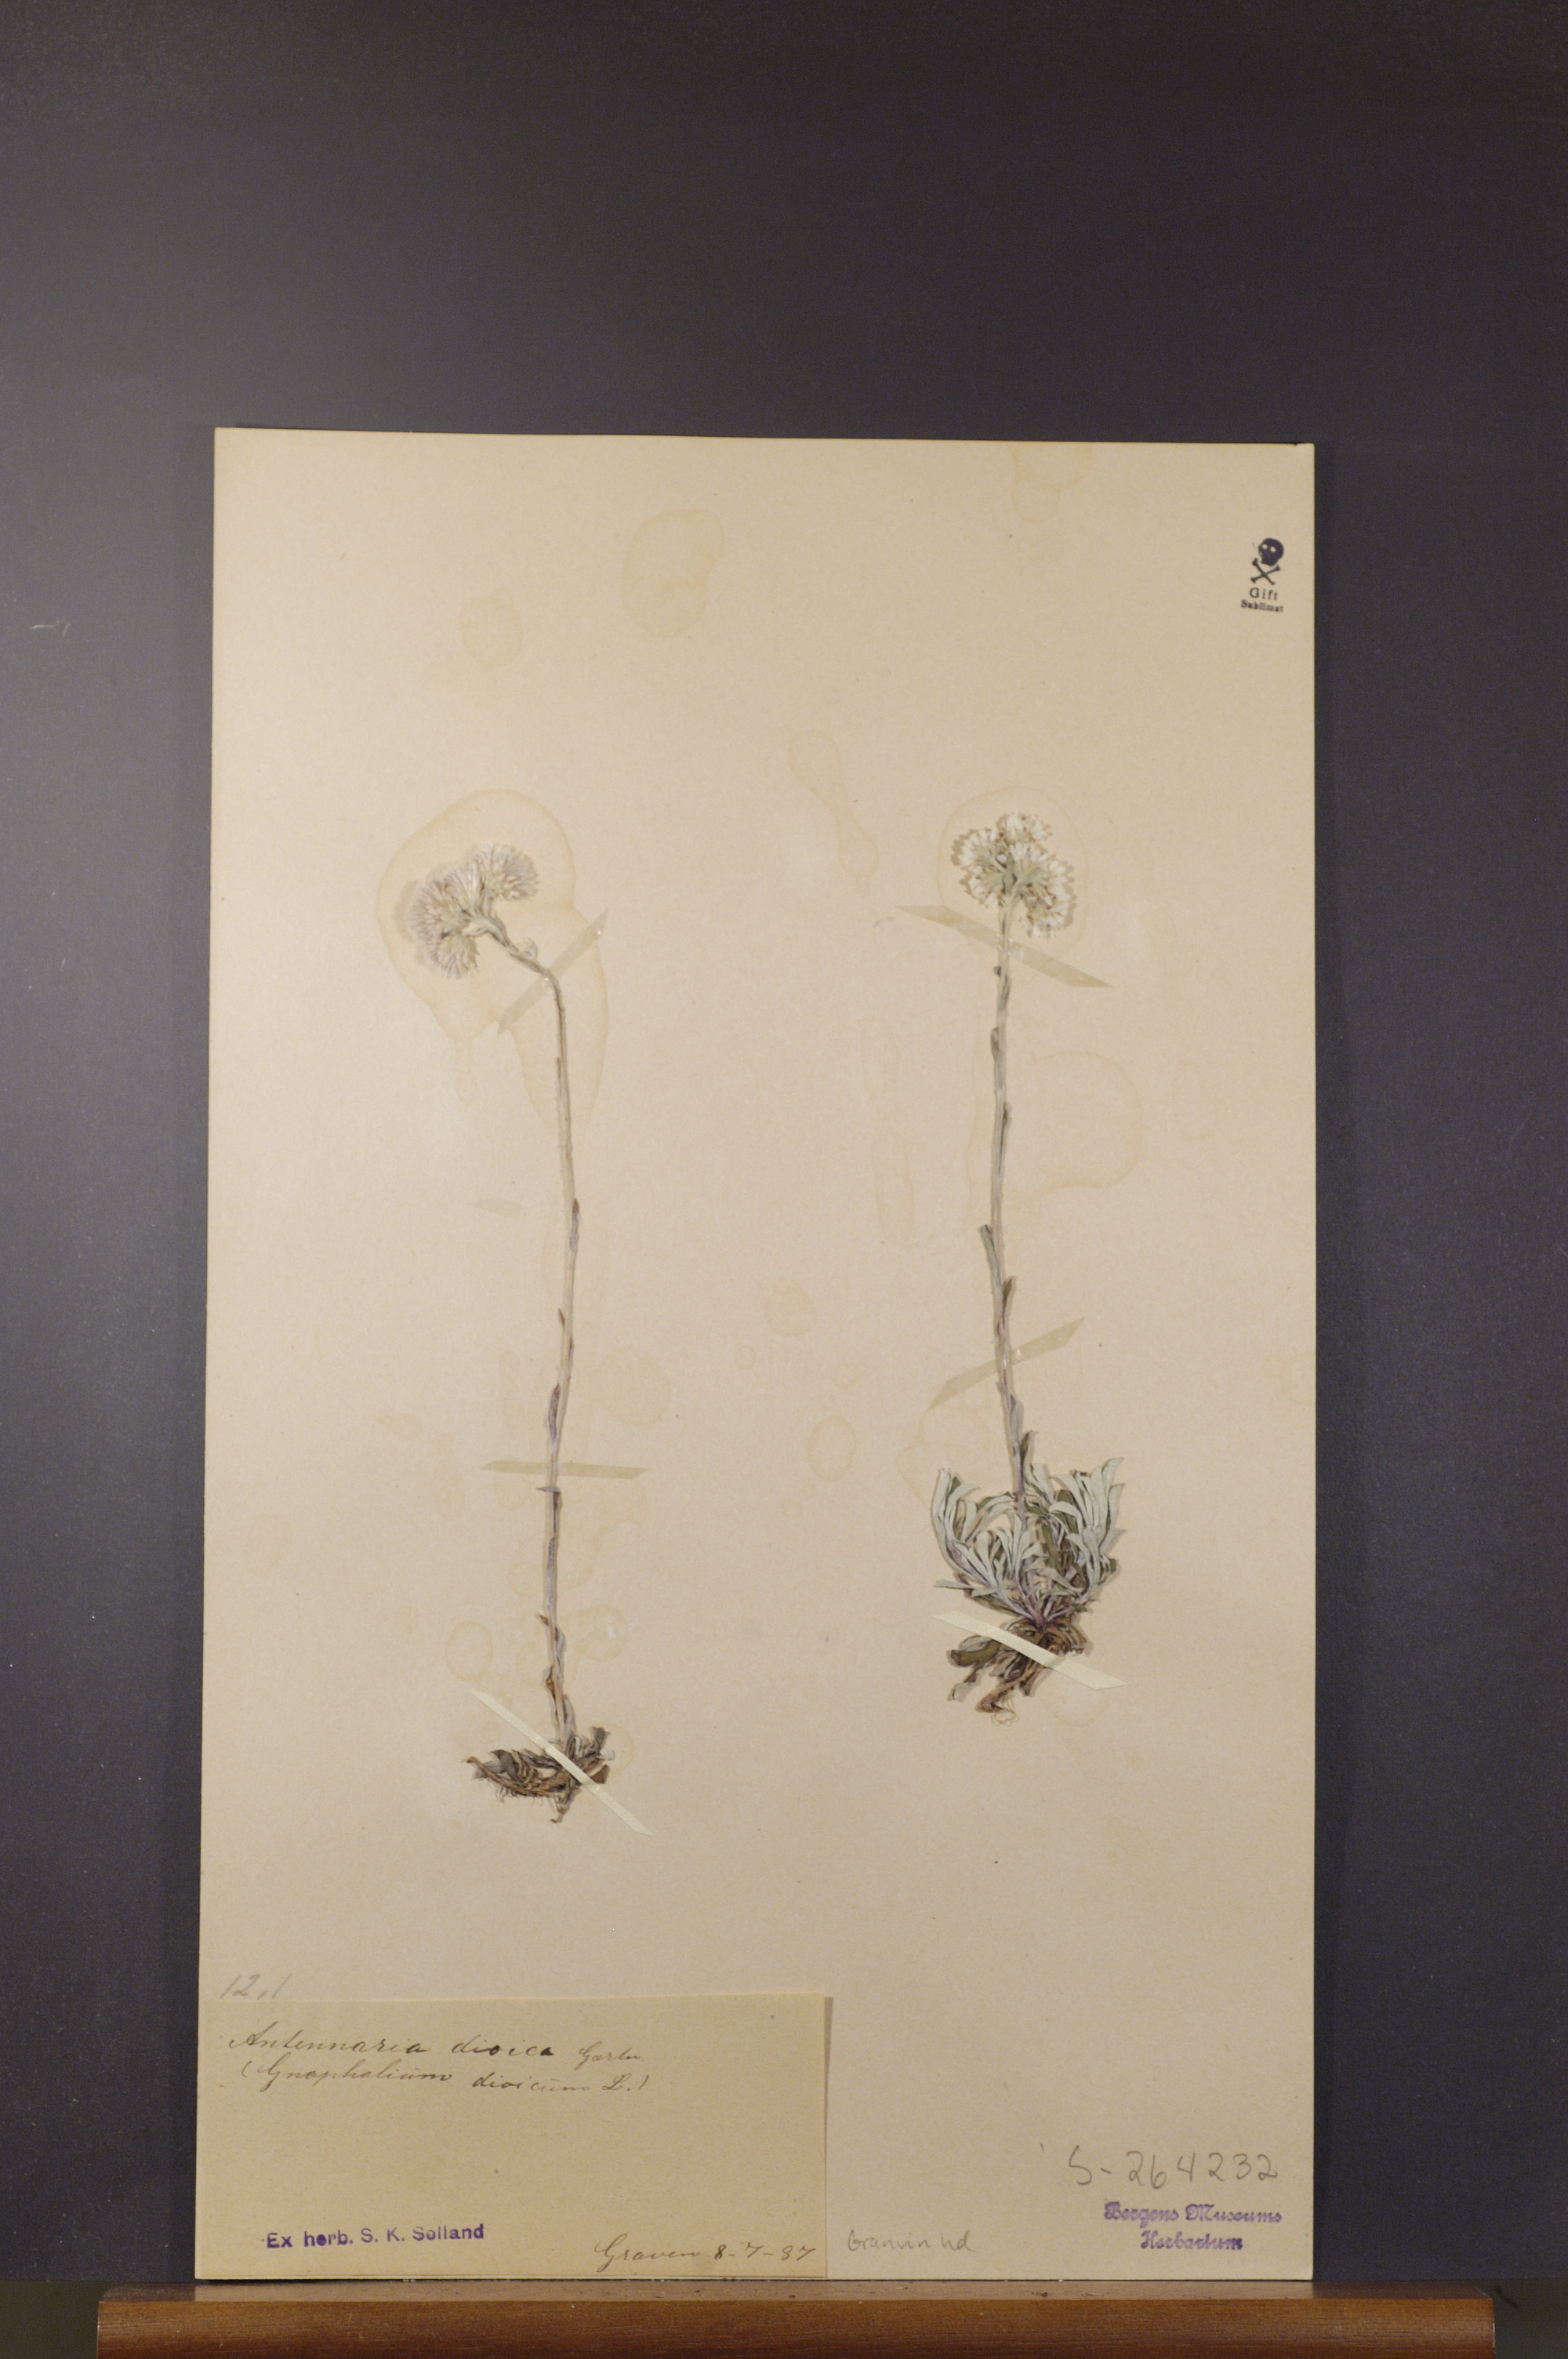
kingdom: Plantae
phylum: Tracheophyta
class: Magnoliopsida
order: Asterales
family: Asteraceae
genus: Antennaria
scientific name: Antennaria dioica
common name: Mountain everlasting
